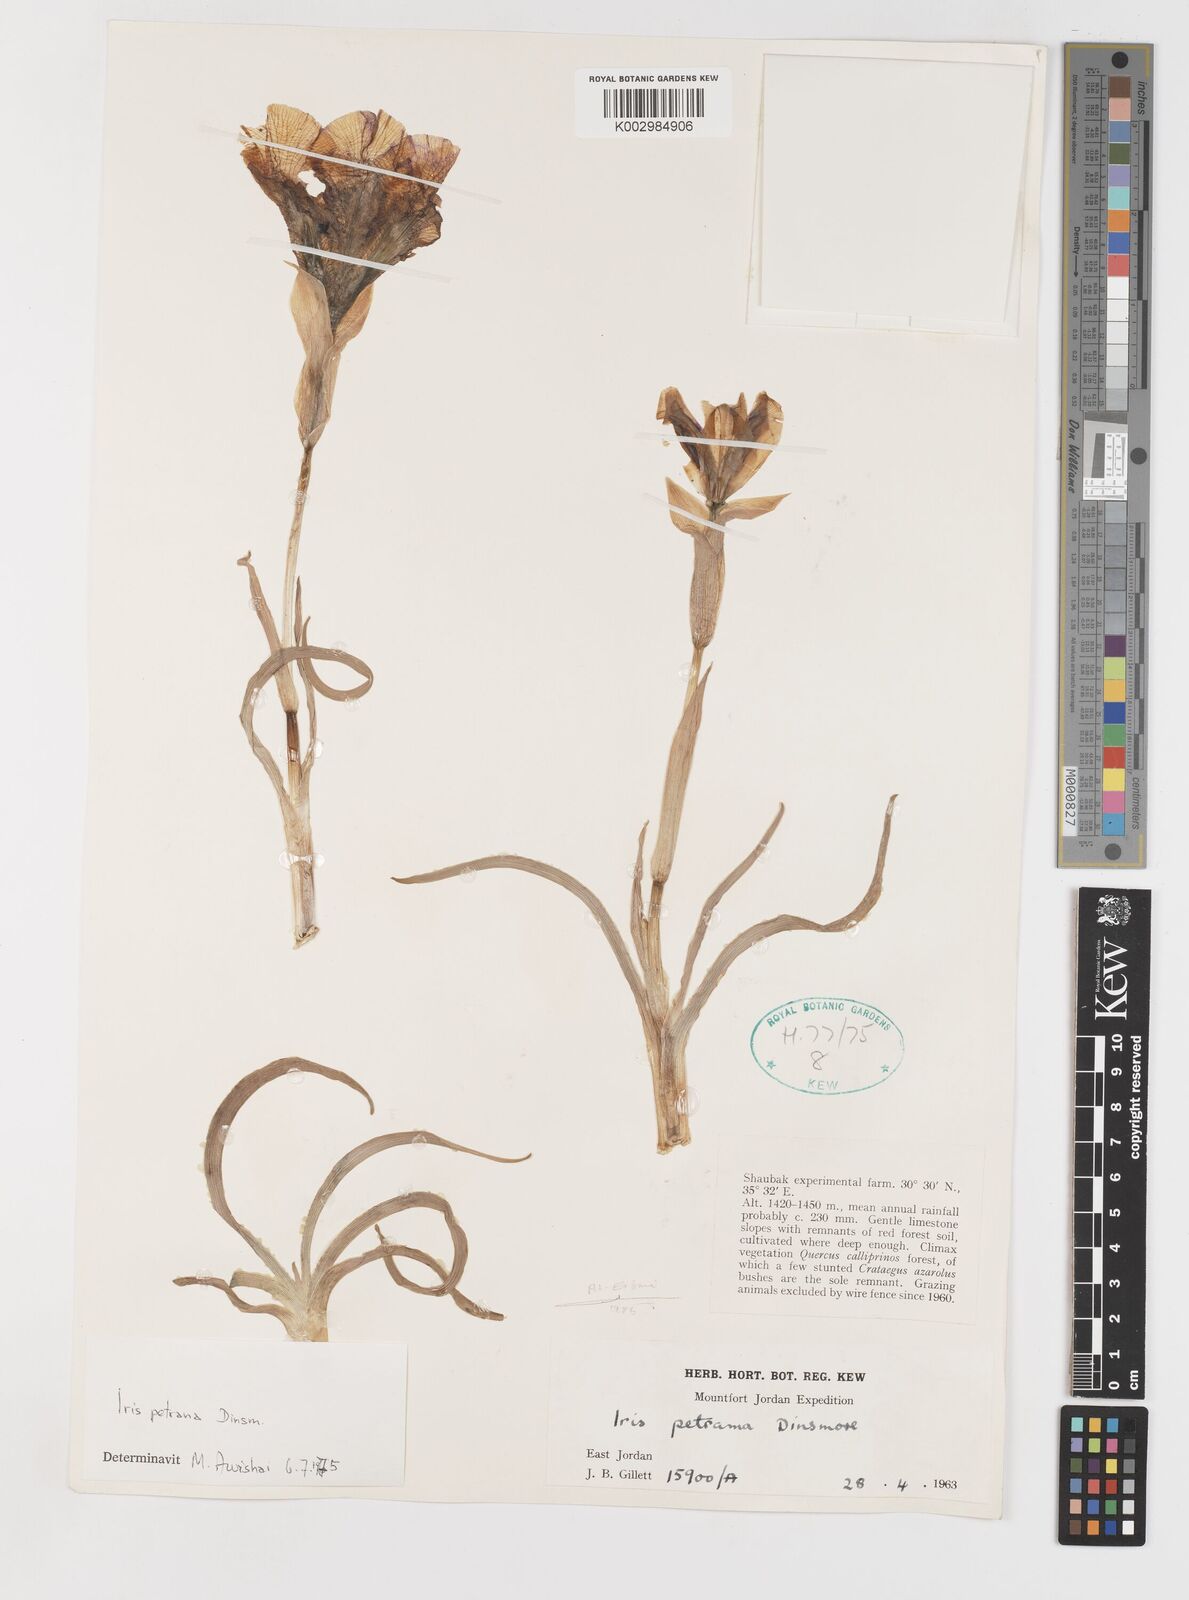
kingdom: Plantae
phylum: Tracheophyta
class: Liliopsida
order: Asparagales
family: Iridaceae
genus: Iris
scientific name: Iris petrana
